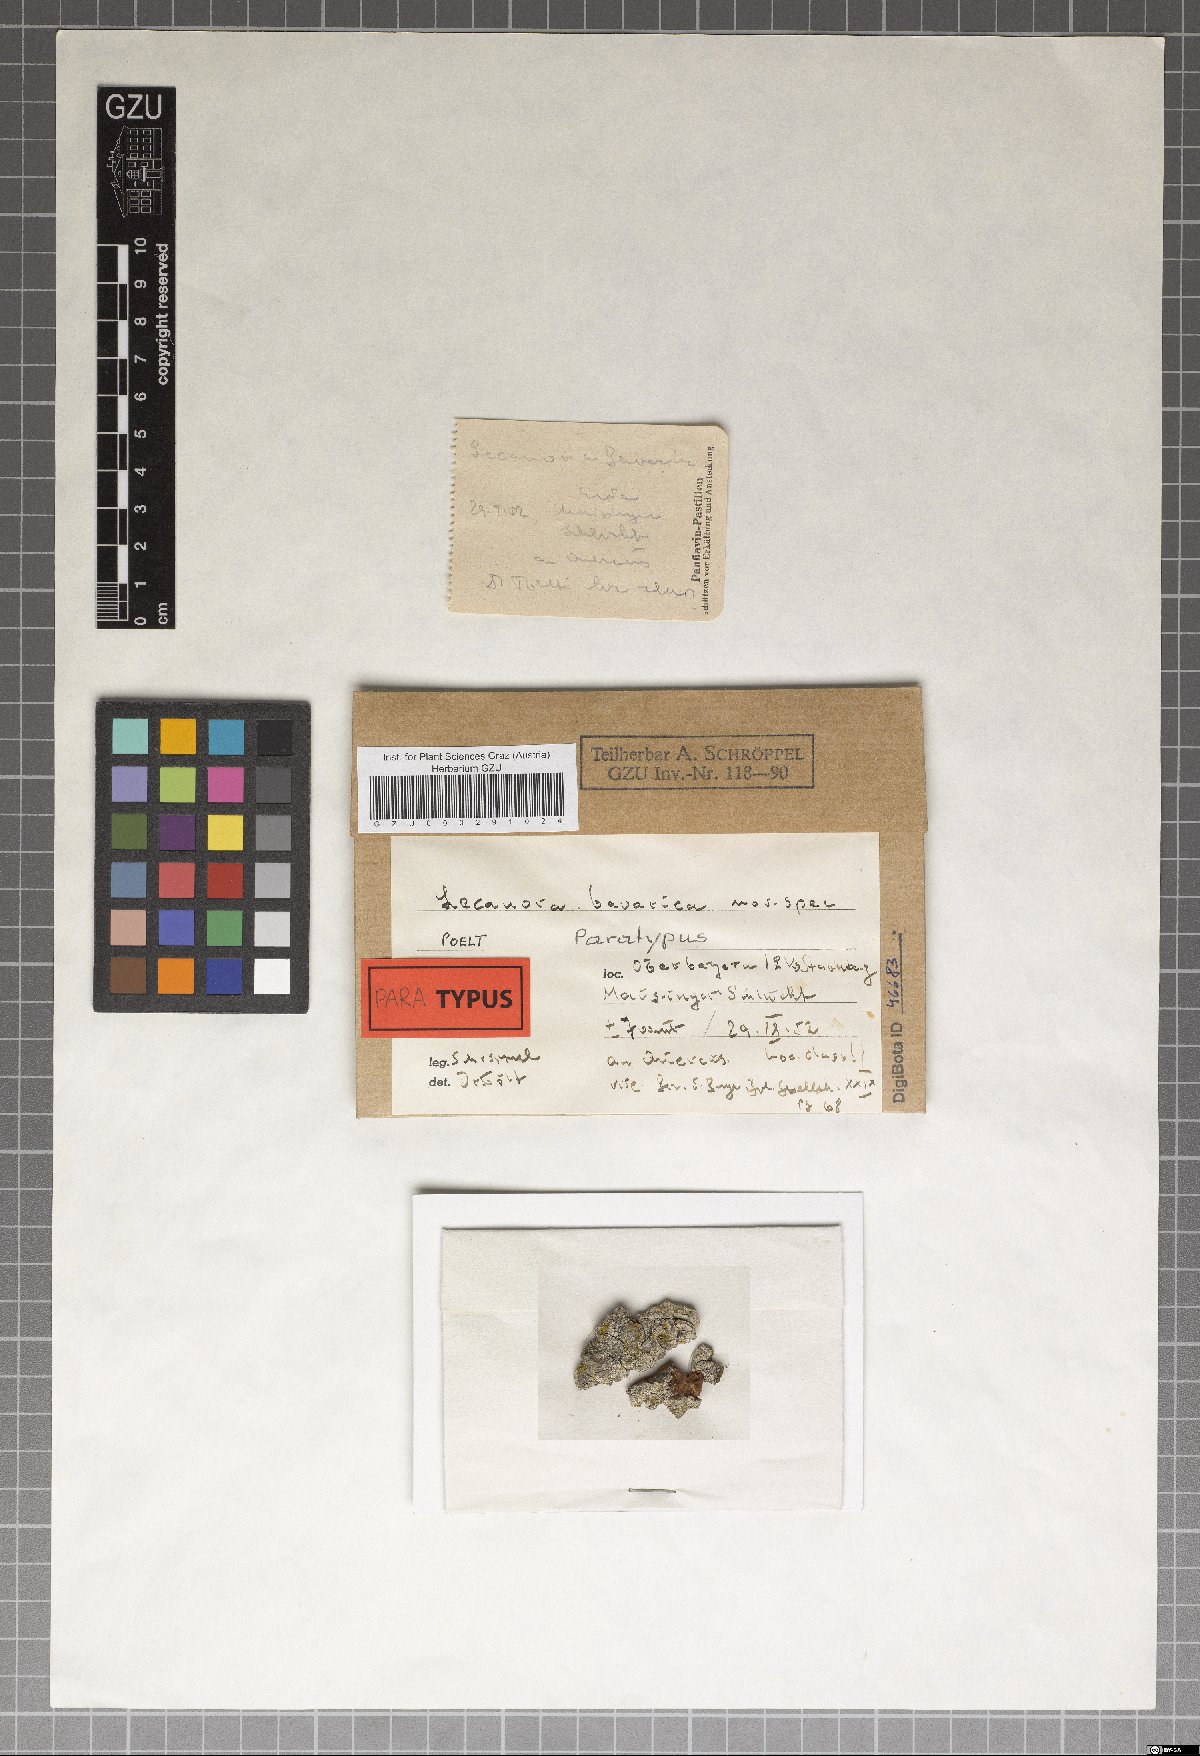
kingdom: Fungi
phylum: Ascomycota
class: Lecanoromycetes
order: Lecanorales
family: Lecanoraceae
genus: Lecanora
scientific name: Lecanora
